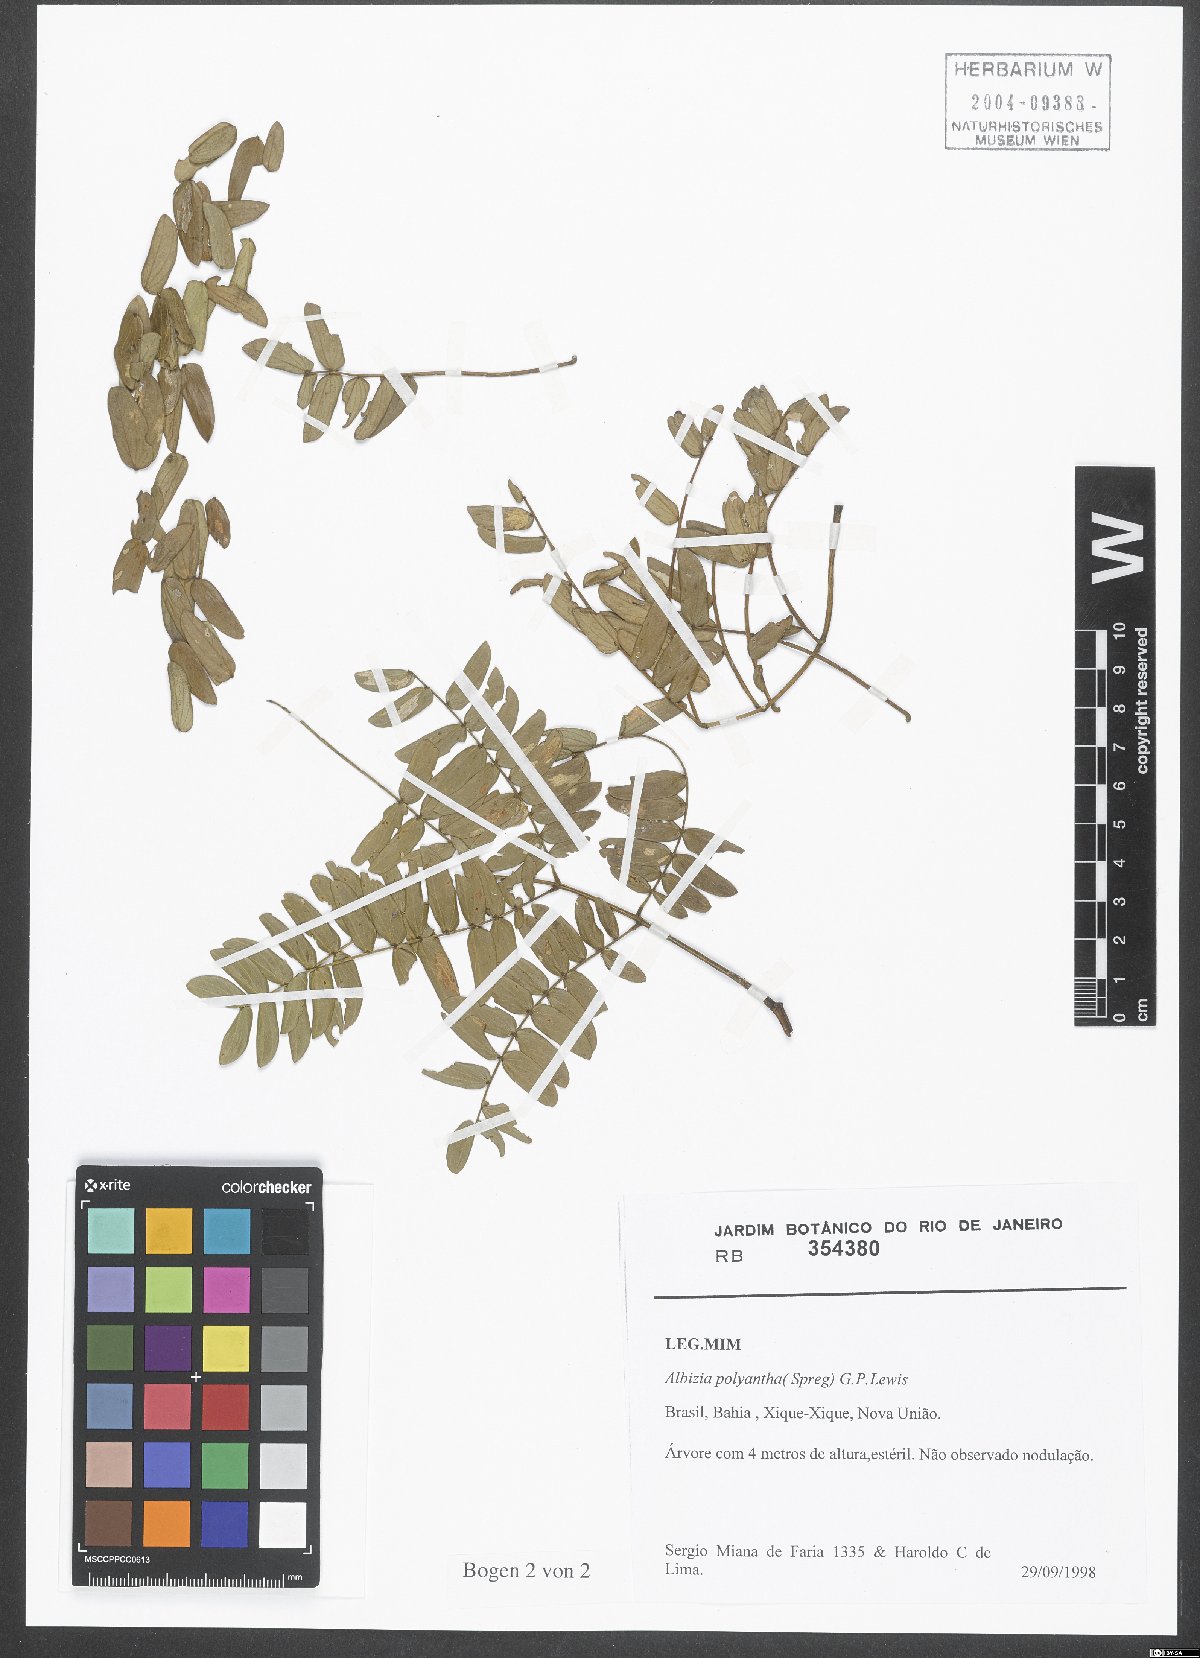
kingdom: Plantae
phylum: Tracheophyta
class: Magnoliopsida
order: Fabales
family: Fabaceae
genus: Albizia
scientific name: Albizia inundata
